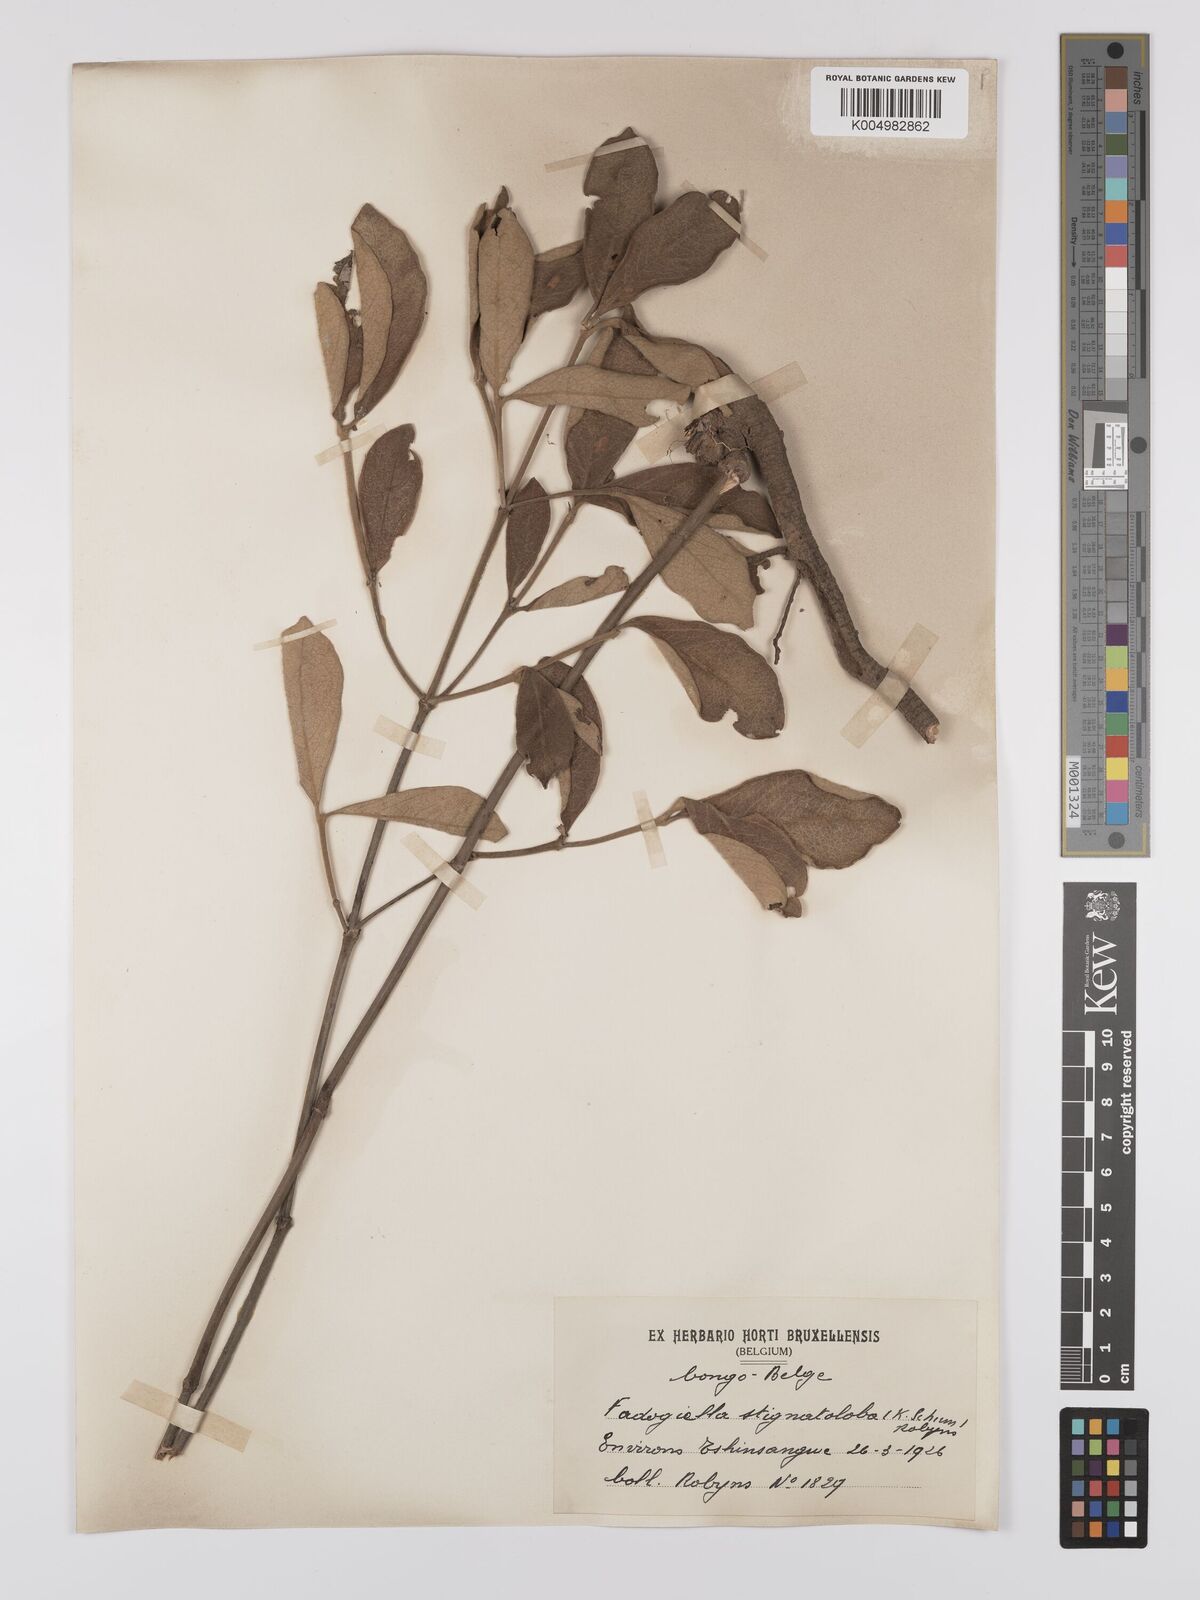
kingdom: Plantae
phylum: Tracheophyta
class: Magnoliopsida
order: Gentianales
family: Rubiaceae
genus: Fadogiella
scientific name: Fadogiella stigmatoloba
